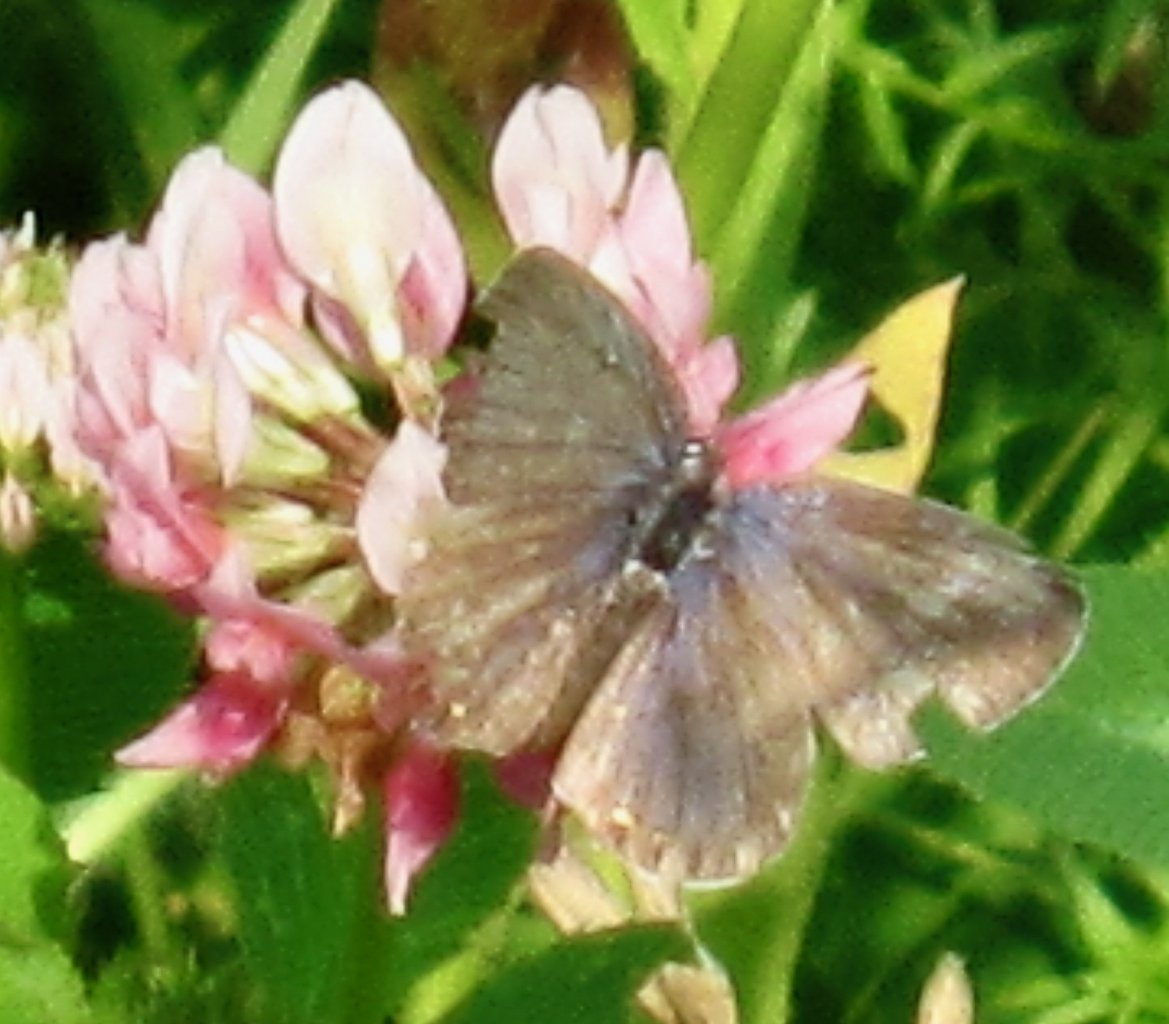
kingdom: Animalia
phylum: Arthropoda
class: Insecta
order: Lepidoptera
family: Lycaenidae
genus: Elkalyce
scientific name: Elkalyce comyntas
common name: Eastern Tailed-Blue
